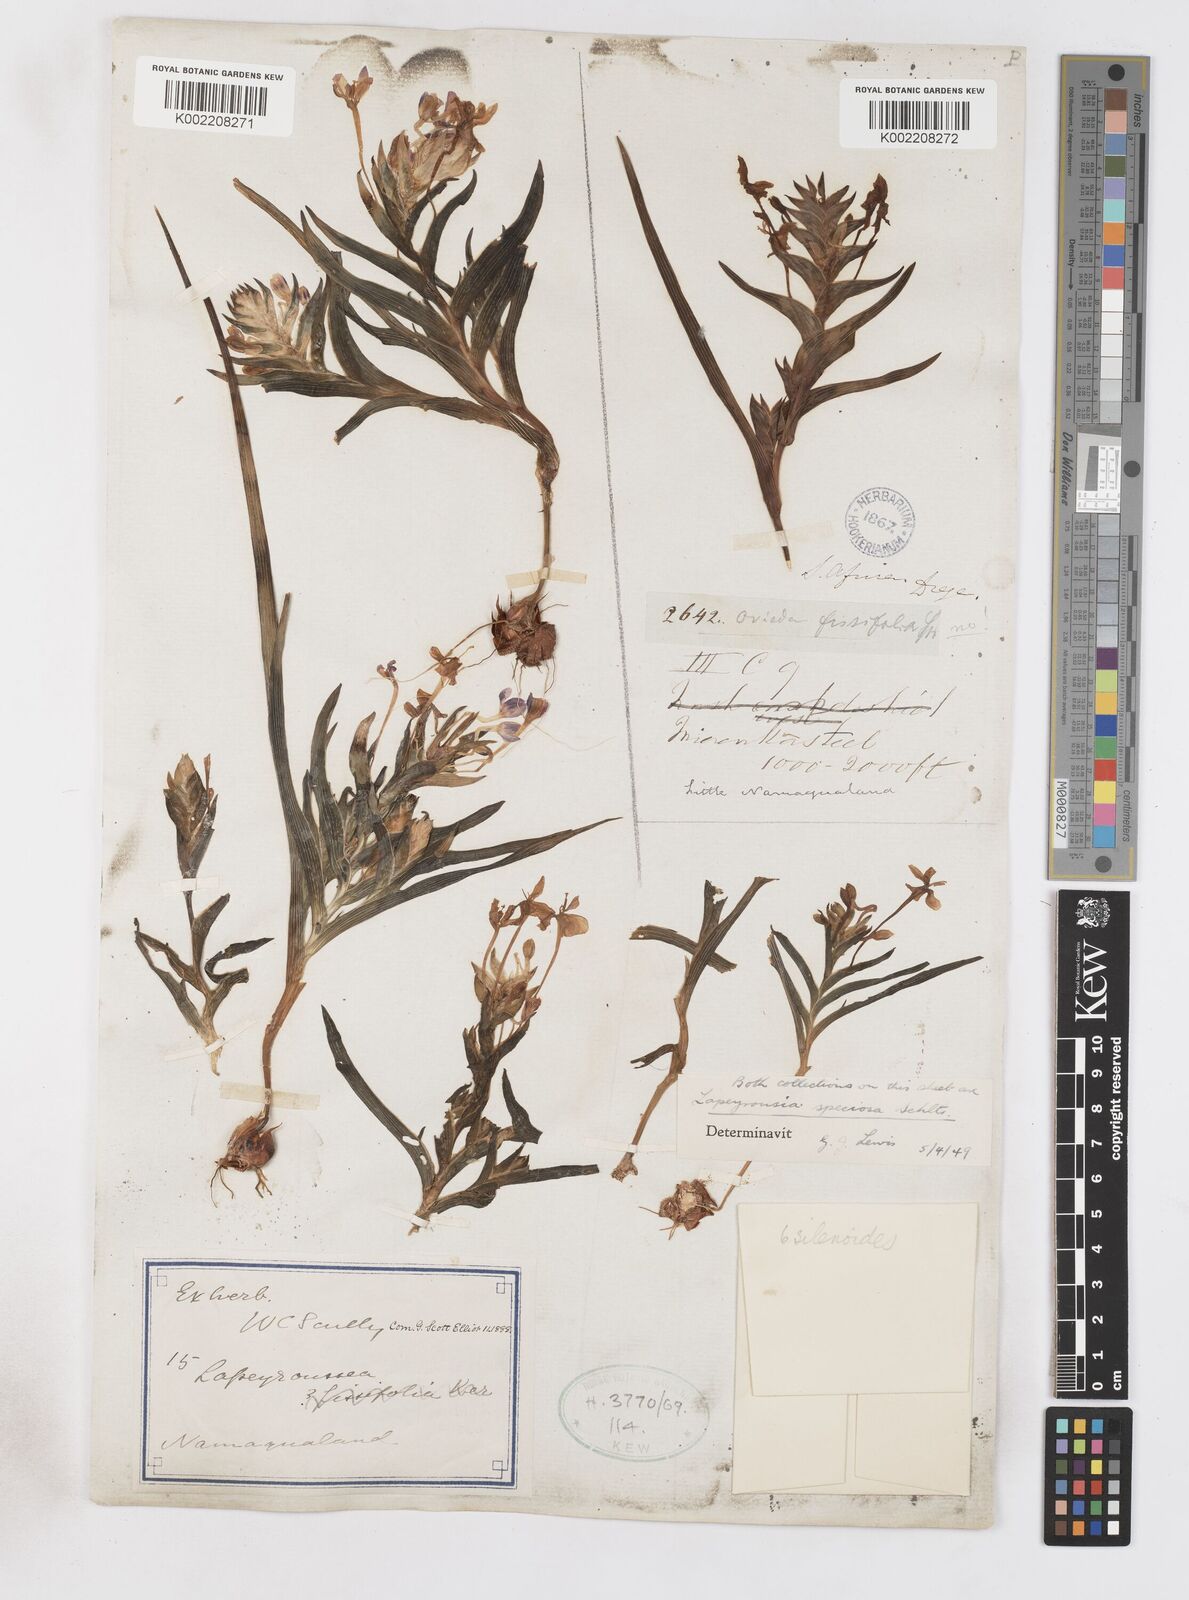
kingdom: Plantae
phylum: Tracheophyta
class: Liliopsida
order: Asparagales
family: Iridaceae
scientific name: Iridaceae
